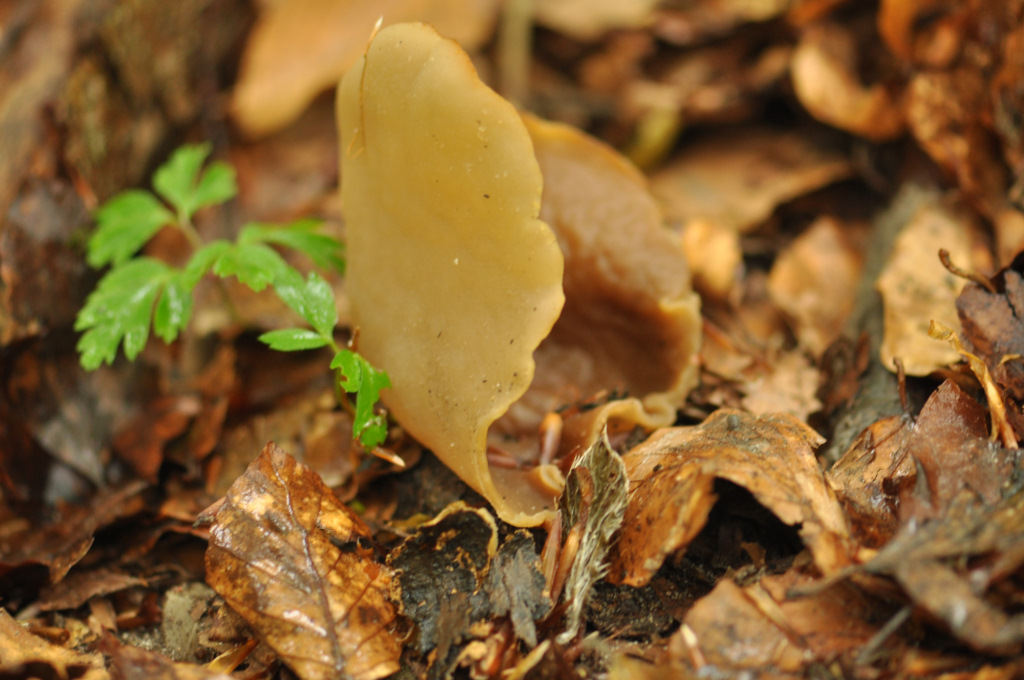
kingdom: Fungi
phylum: Ascomycota
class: Pezizomycetes
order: Pezizales
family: Pezizaceae
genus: Peziza
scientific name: Peziza arvernensis
